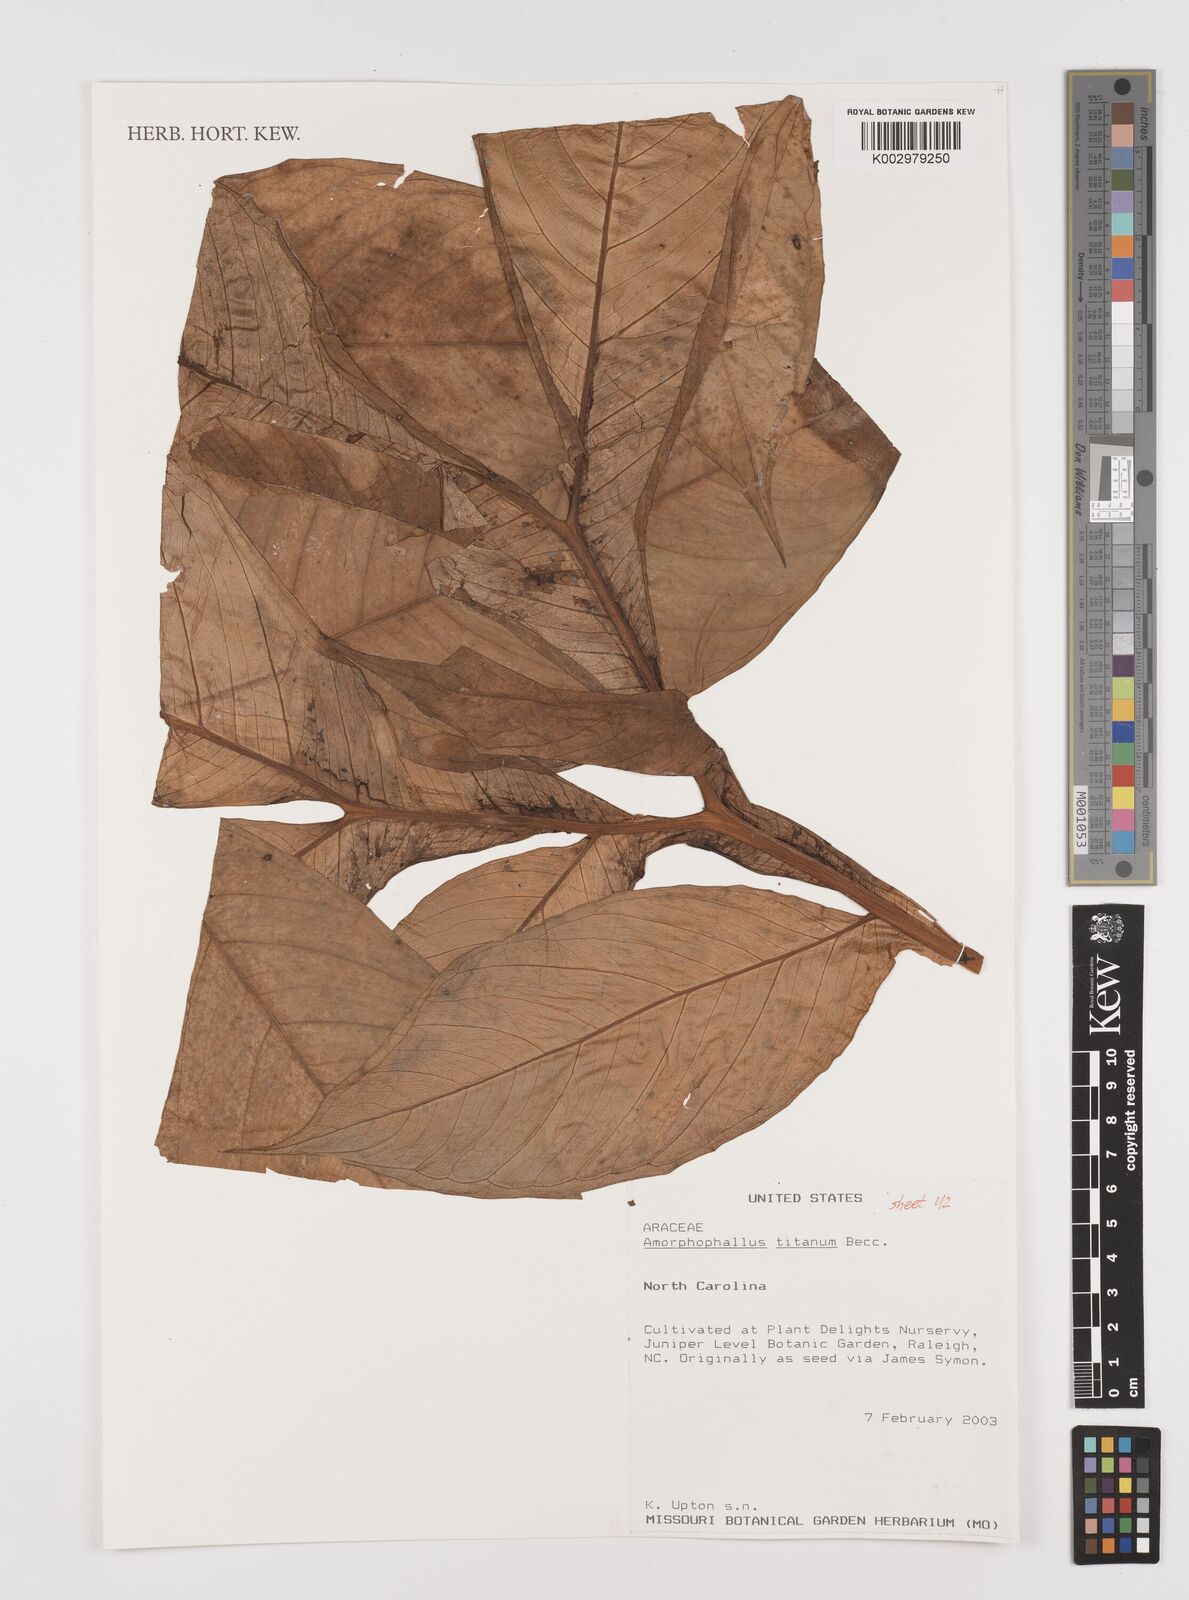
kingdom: Plantae
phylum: Tracheophyta
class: Liliopsida
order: Alismatales
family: Araceae
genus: Amorphophallus
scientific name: Amorphophallus titanum
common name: Titan arum
